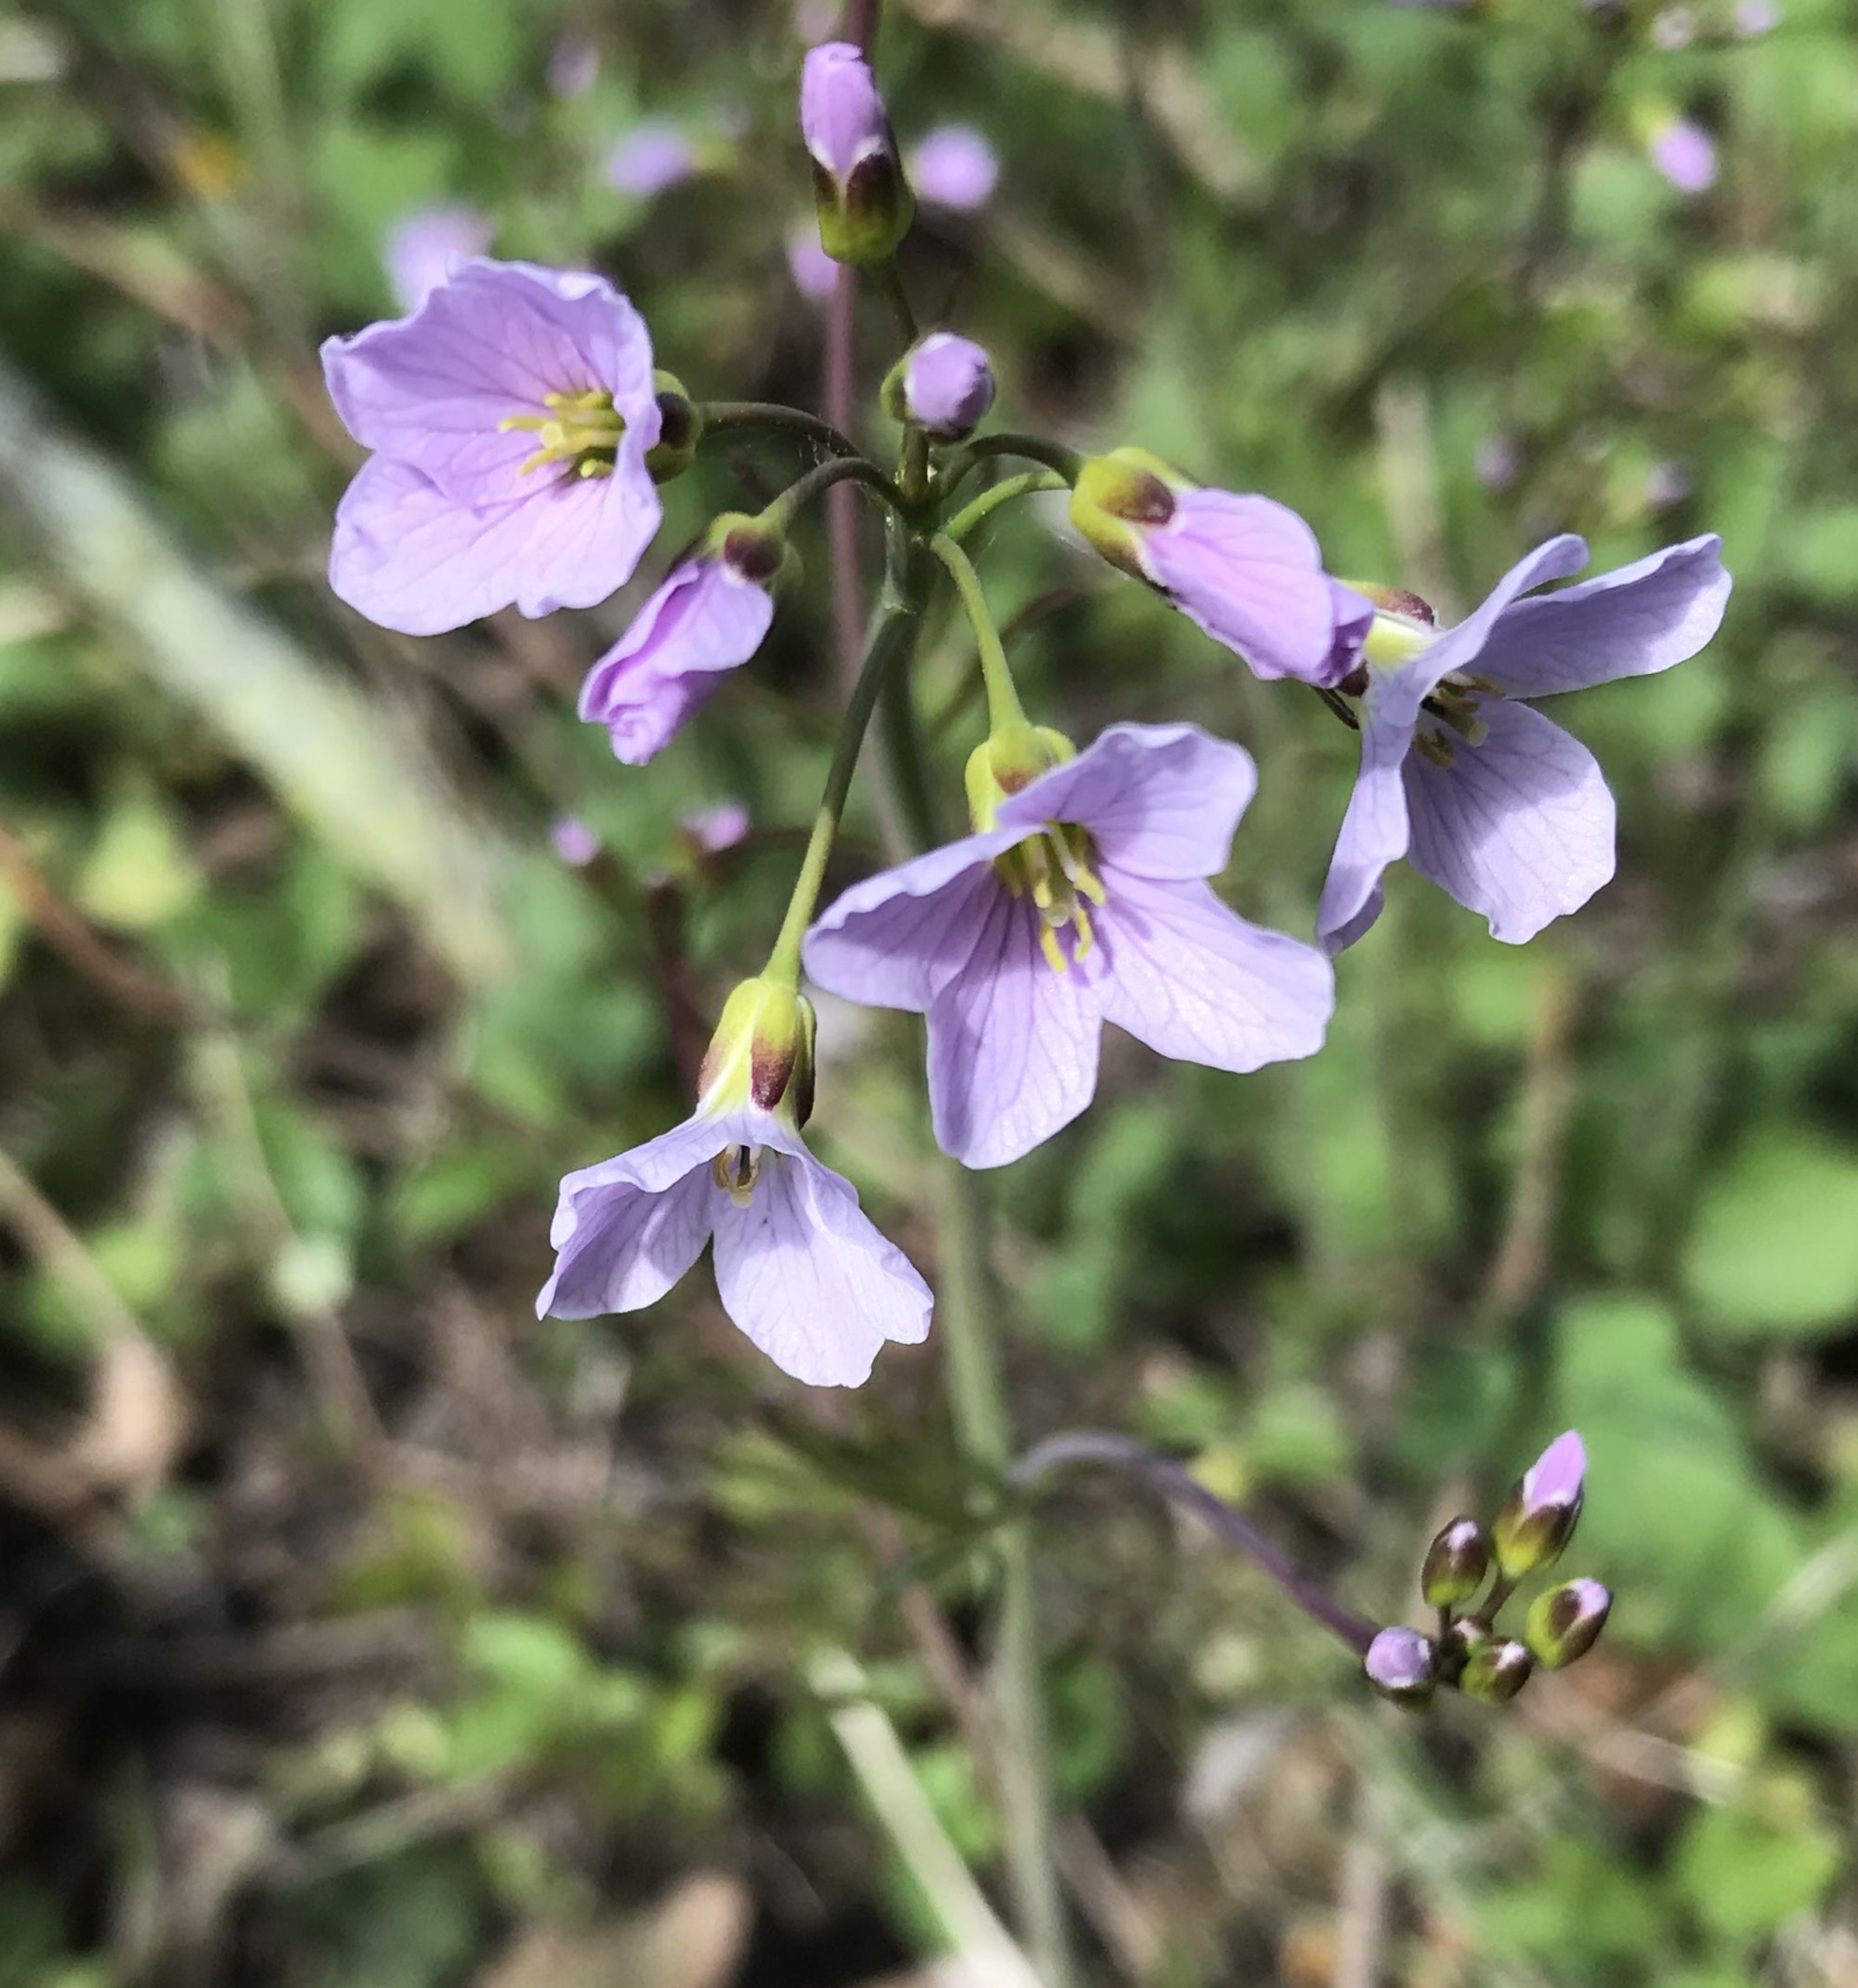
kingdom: Plantae
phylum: Tracheophyta
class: Magnoliopsida
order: Brassicales
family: Brassicaceae
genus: Cardamine
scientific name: Cardamine pratensis
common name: Engkarse
